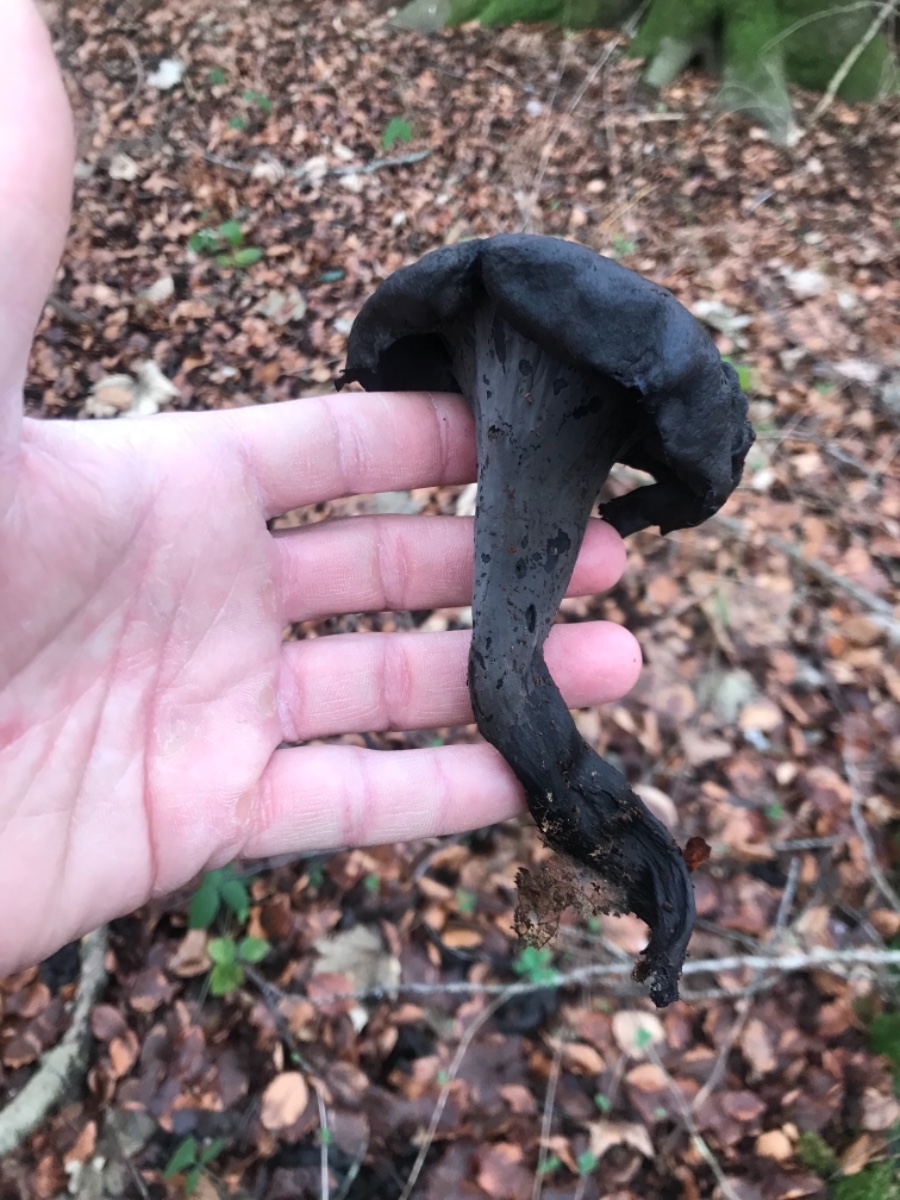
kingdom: Fungi
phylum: Basidiomycota
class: Agaricomycetes
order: Cantharellales
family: Hydnaceae
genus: Craterellus
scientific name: Craterellus cornucopioides
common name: trompetsvamp
